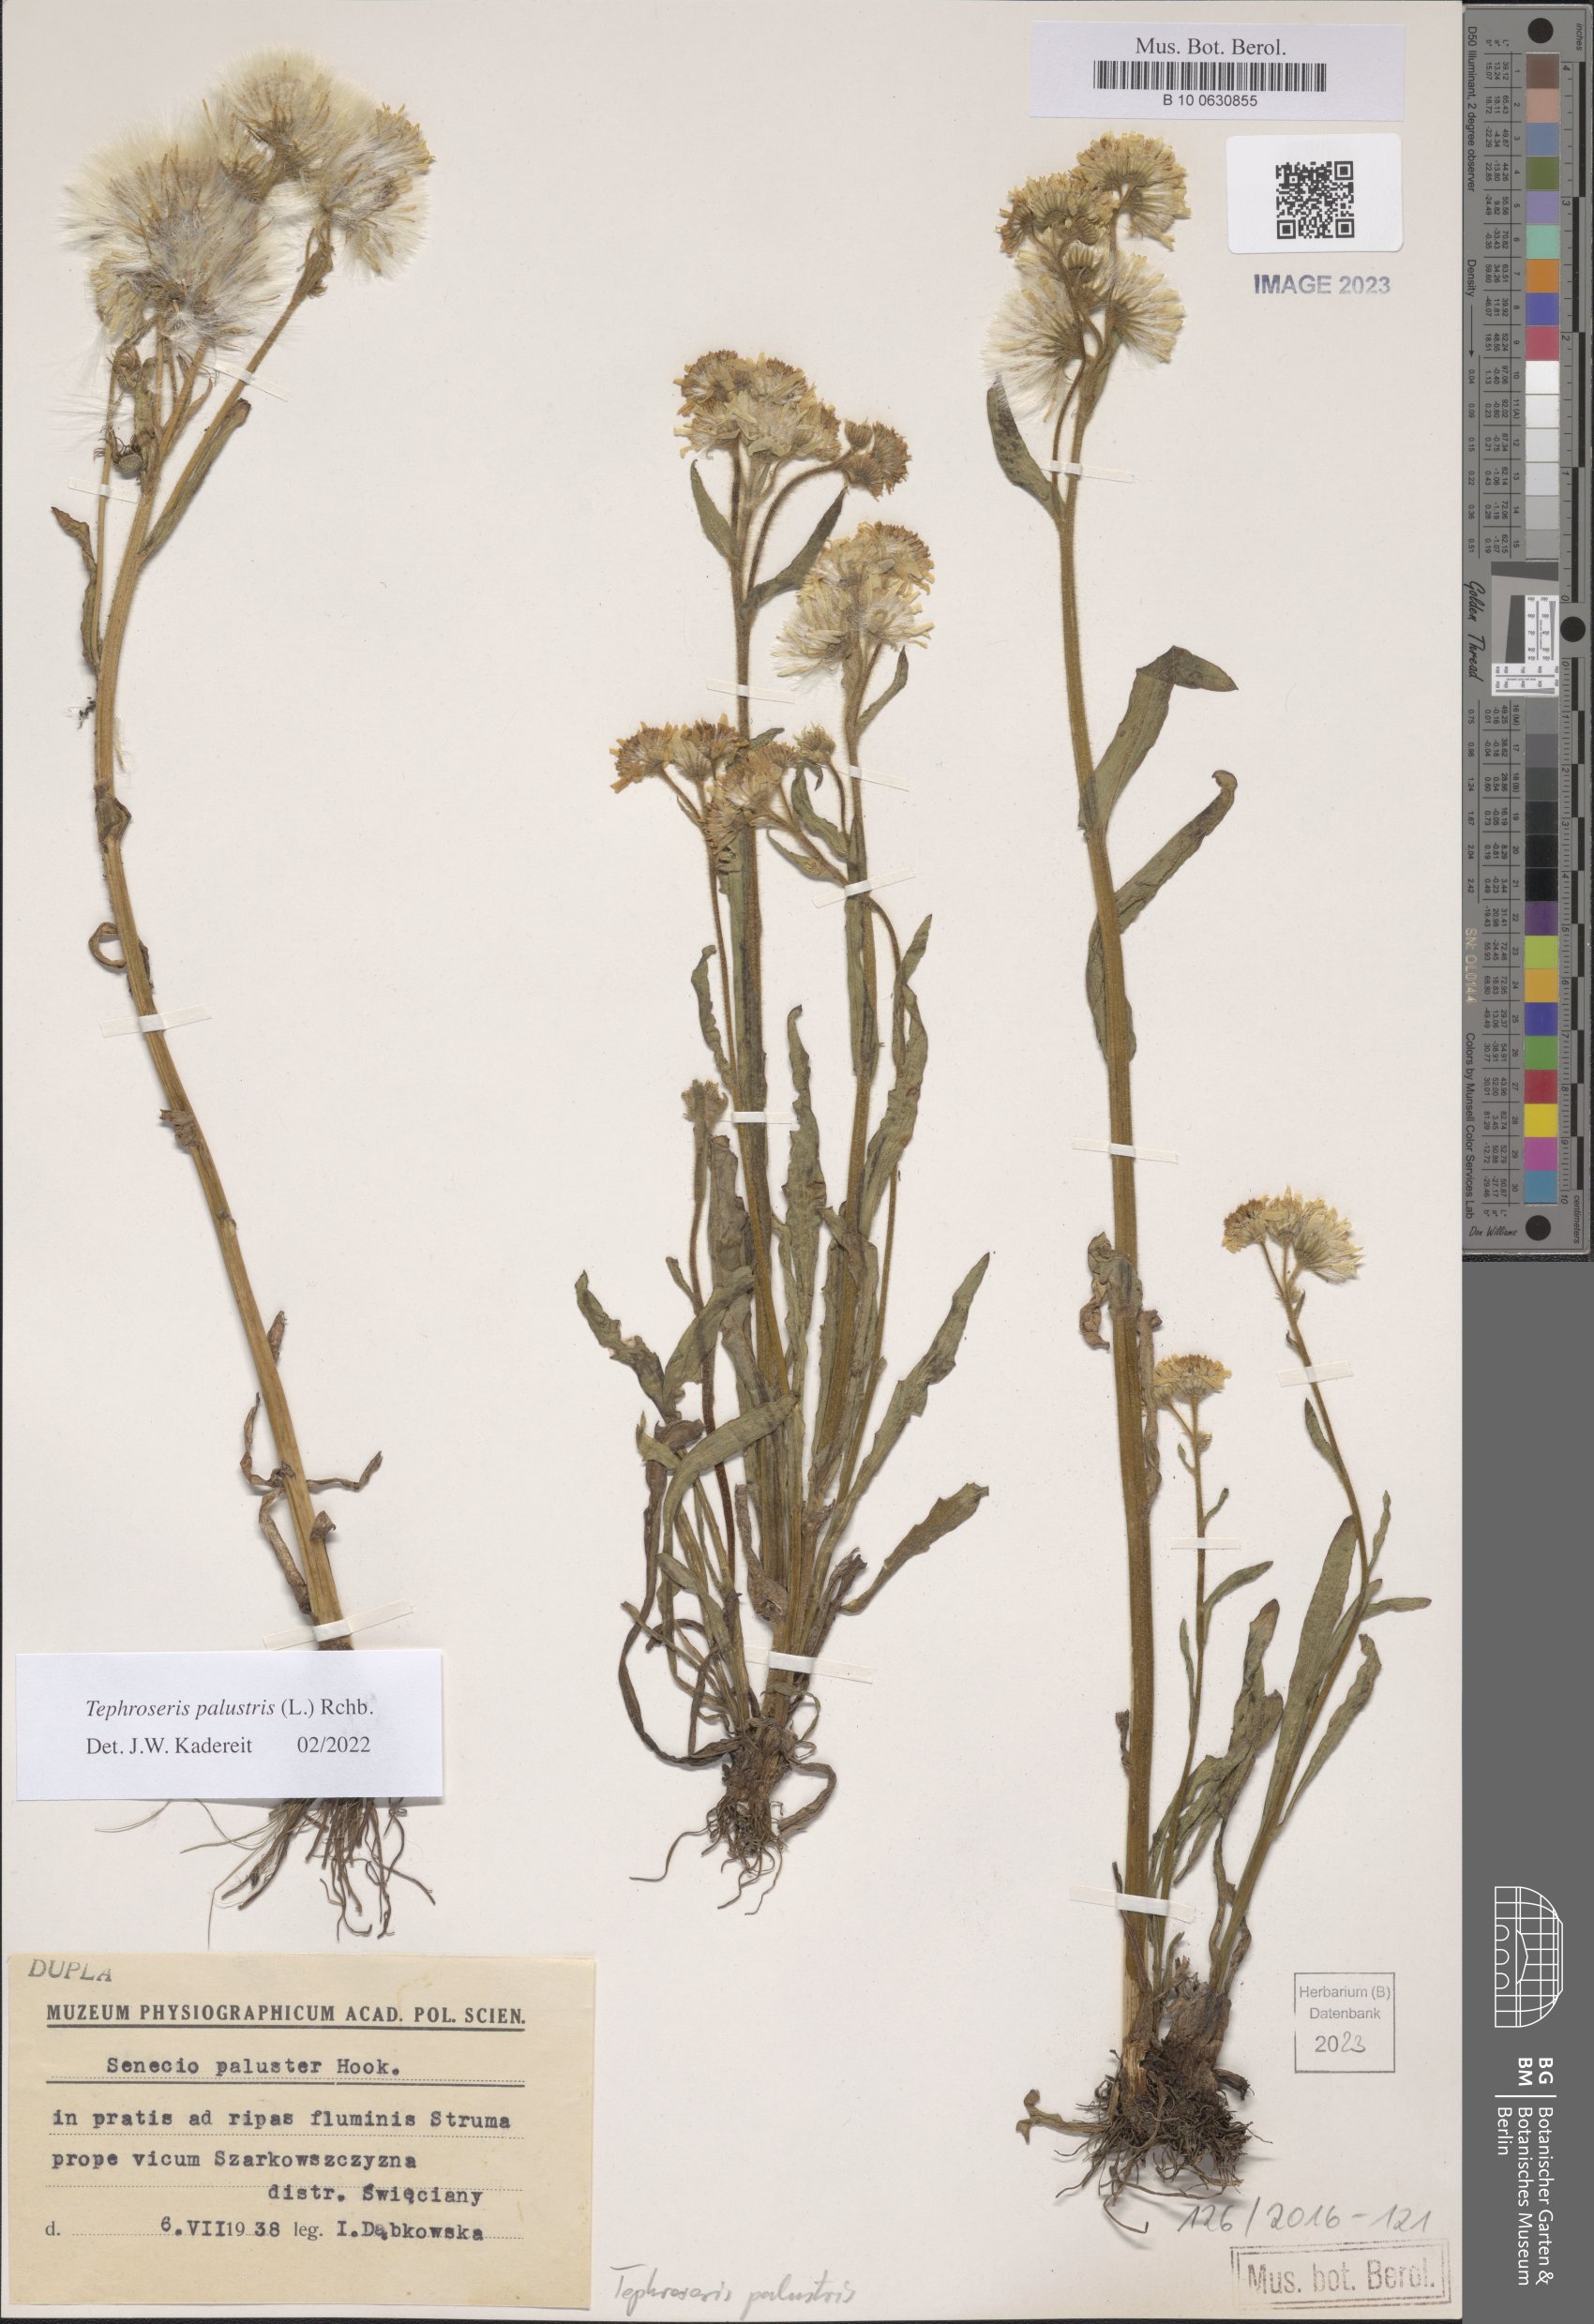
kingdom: Plantae
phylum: Tracheophyta
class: Magnoliopsida
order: Asterales
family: Asteraceae
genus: Tephroseris
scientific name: Tephroseris palustris
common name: Marsh fleawort
